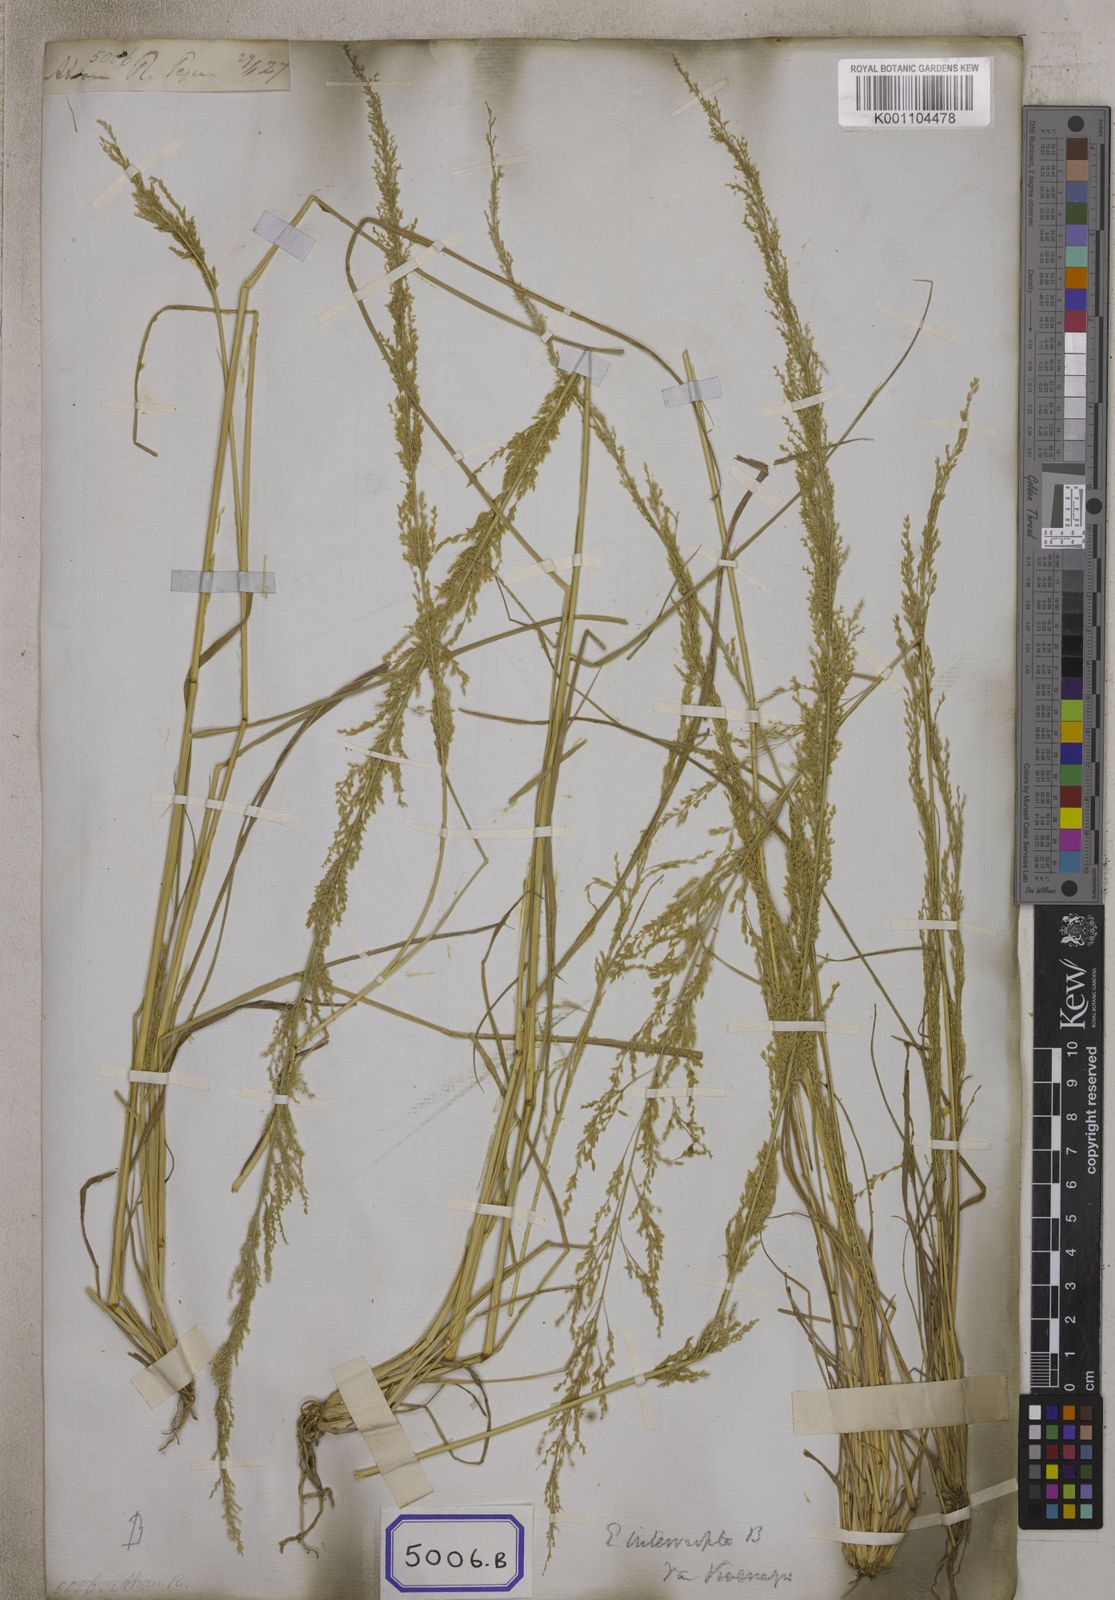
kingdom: Plantae
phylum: Tracheophyta
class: Liliopsida
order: Poales
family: Poaceae
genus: Eragrostis
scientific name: Eragrostis
